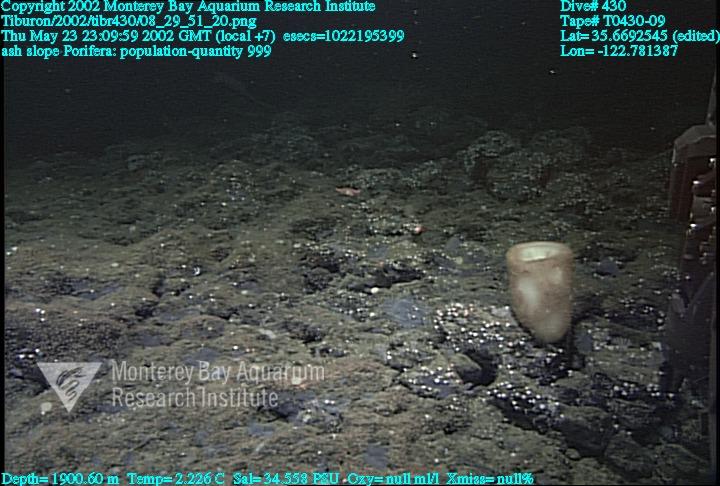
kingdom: Animalia
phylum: Porifera
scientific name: Porifera
